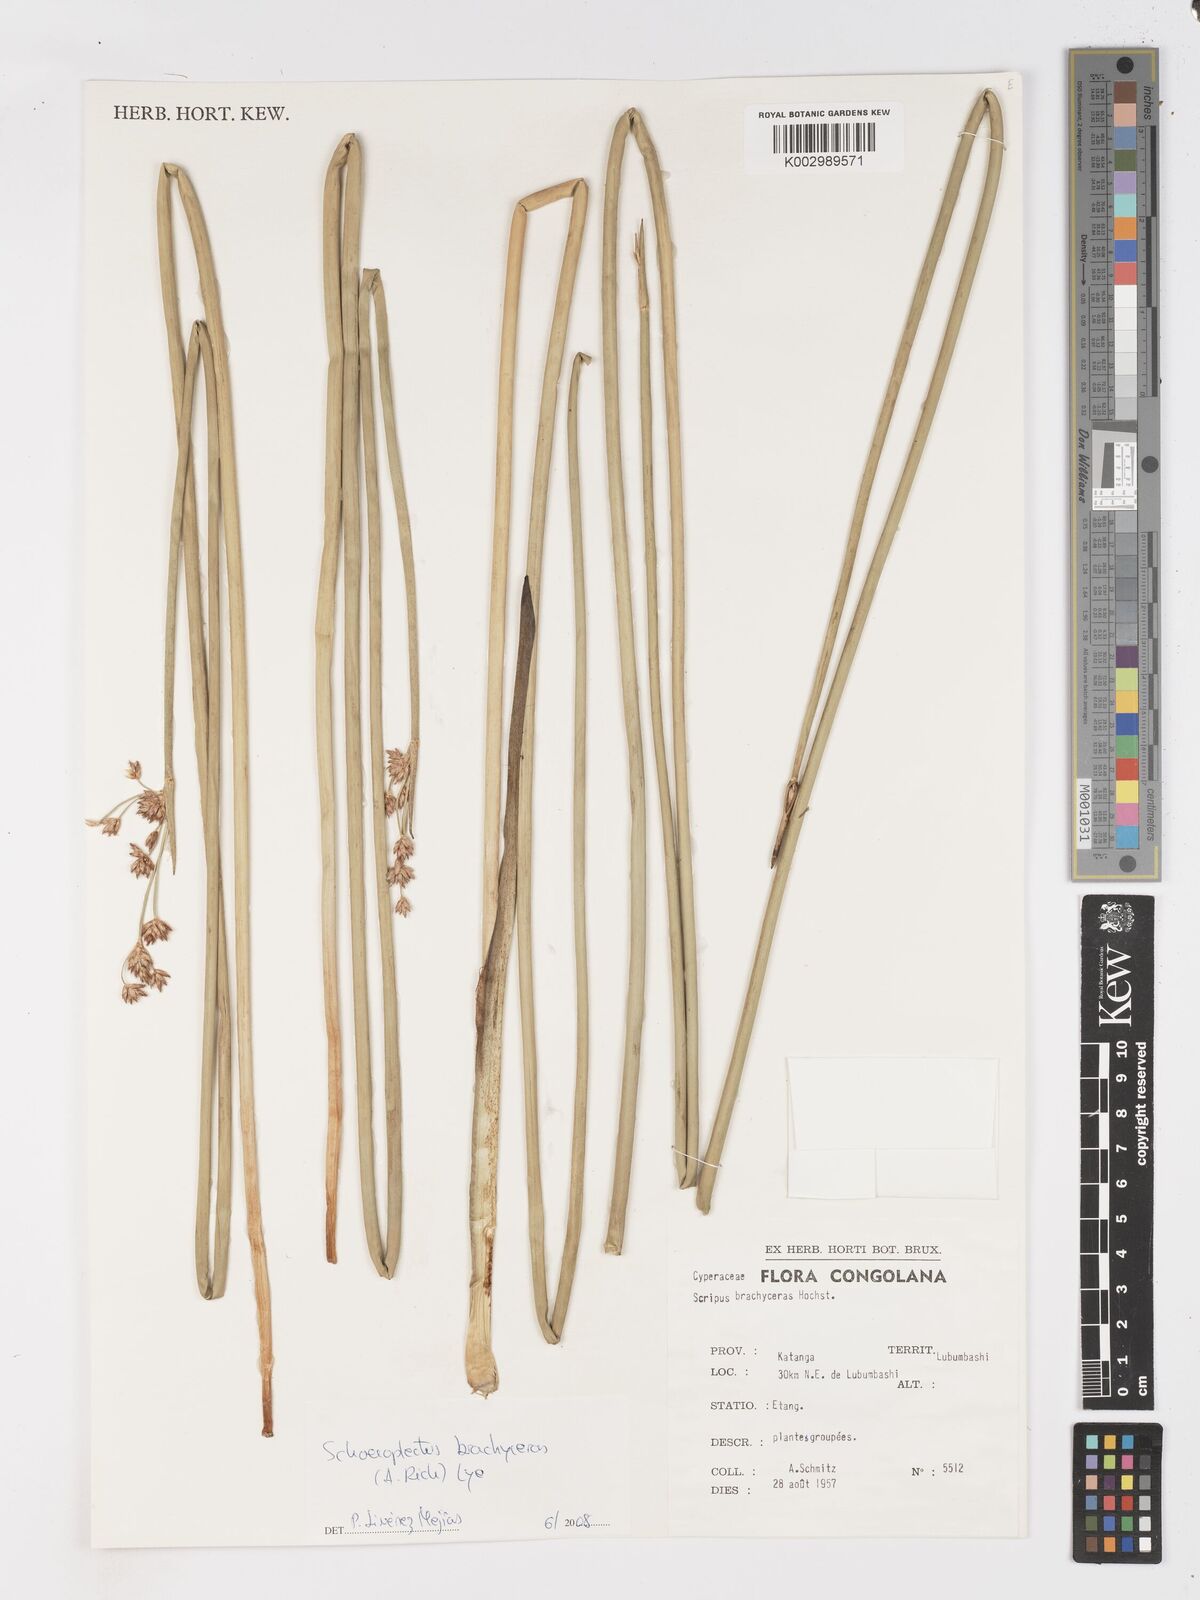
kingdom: Plantae
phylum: Tracheophyta
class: Liliopsida
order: Poales
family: Cyperaceae
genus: Schoenoplectiella
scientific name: Schoenoplectiella corymbosa
